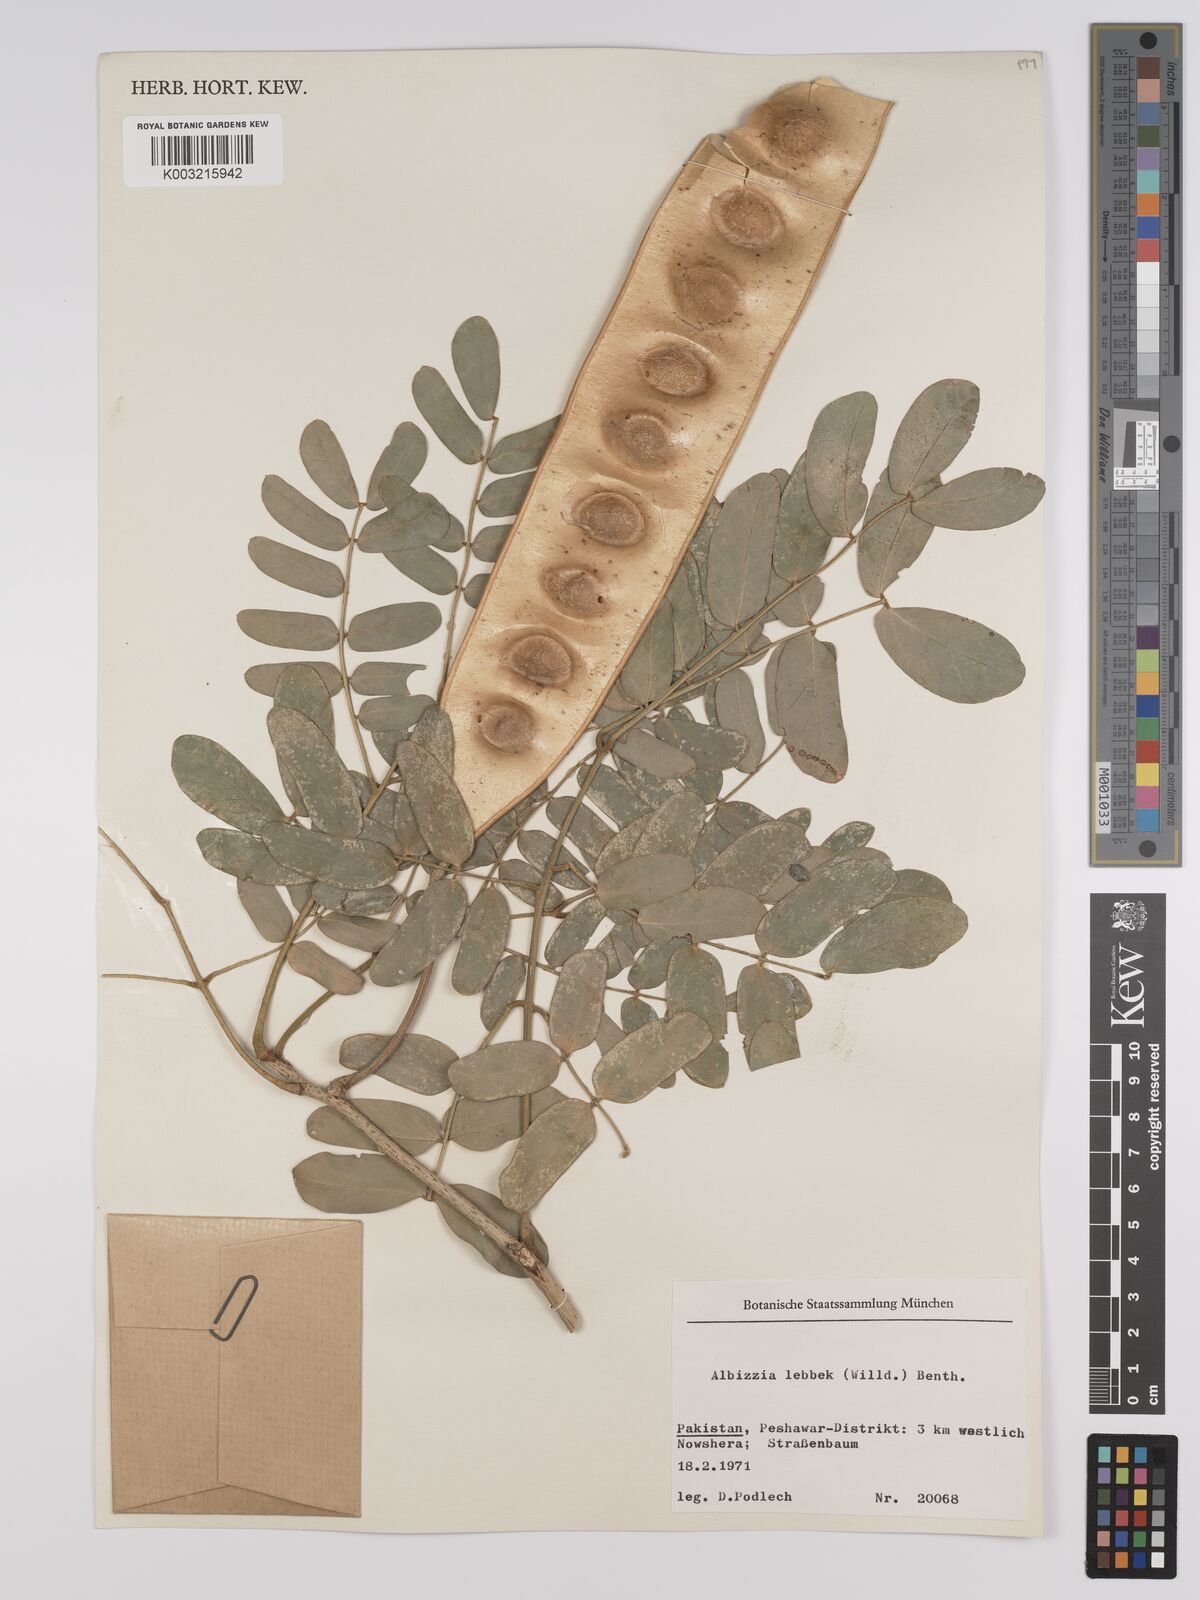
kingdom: Plantae
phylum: Tracheophyta
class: Magnoliopsida
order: Fabales
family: Fabaceae
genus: Albizia
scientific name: Albizia lebbeck
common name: Woman's tongue
